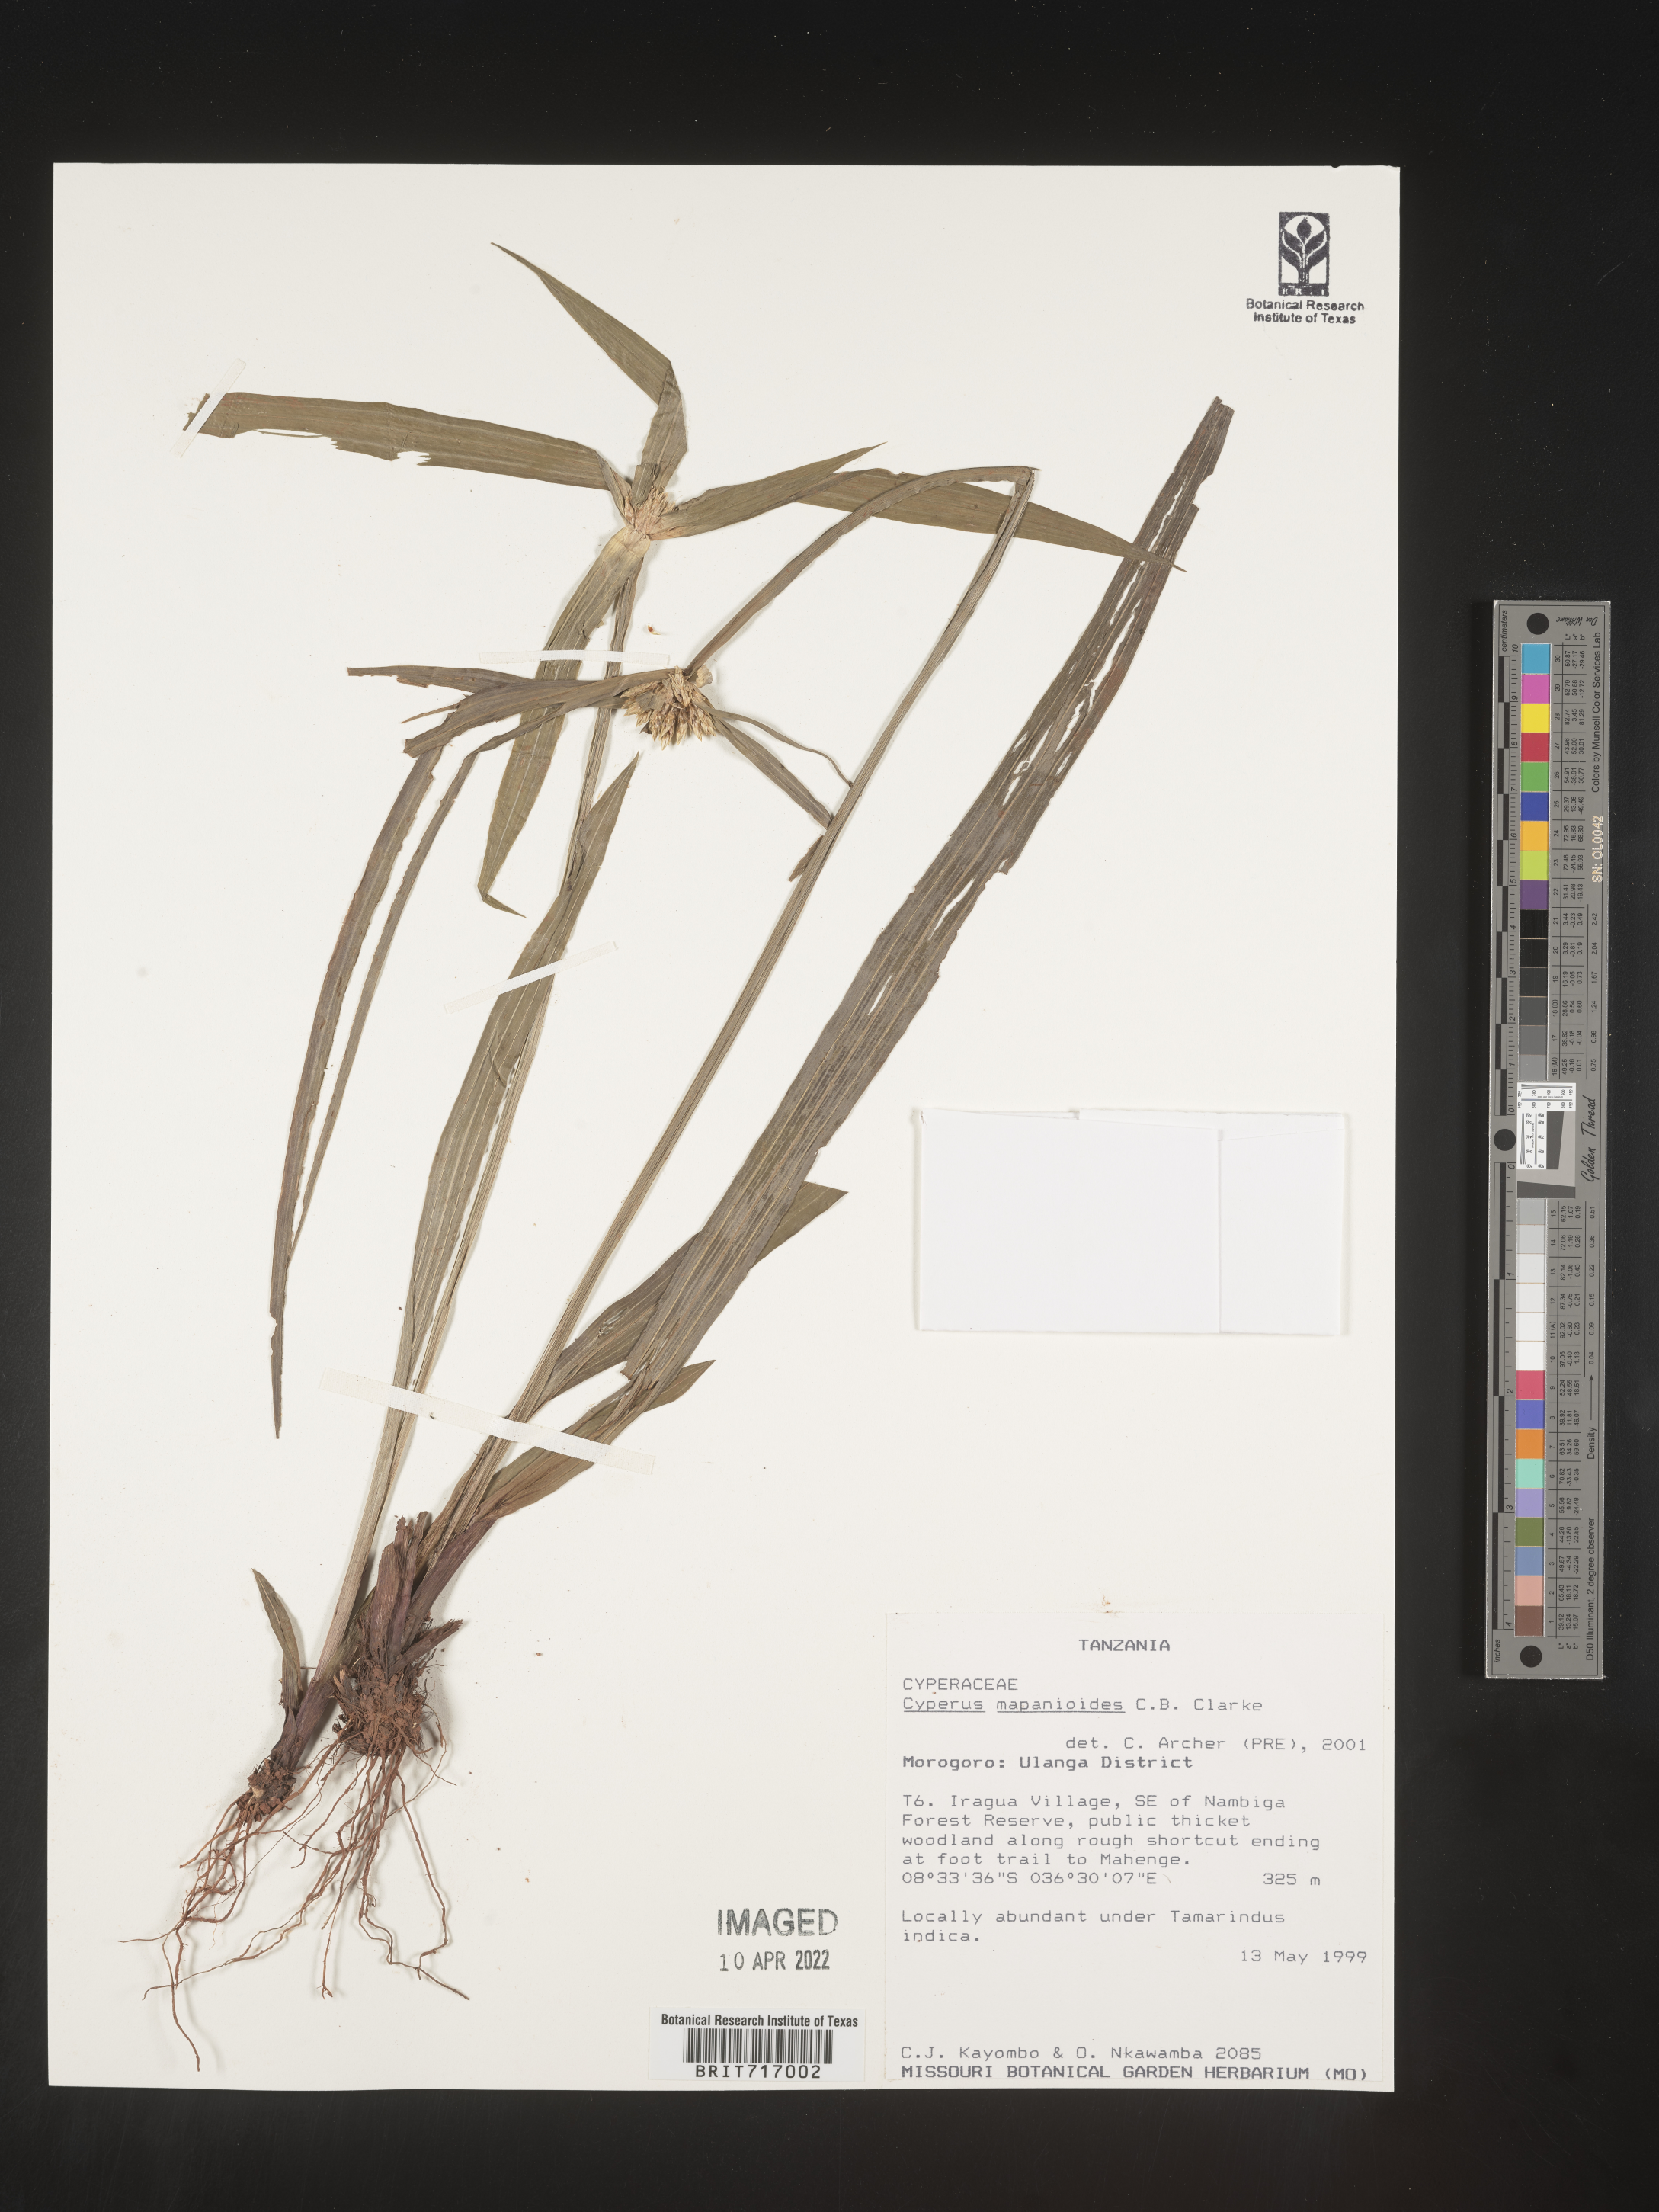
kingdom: Plantae
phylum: Tracheophyta
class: Liliopsida
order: Poales
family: Cyperaceae
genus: Cyperus
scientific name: Cyperus
